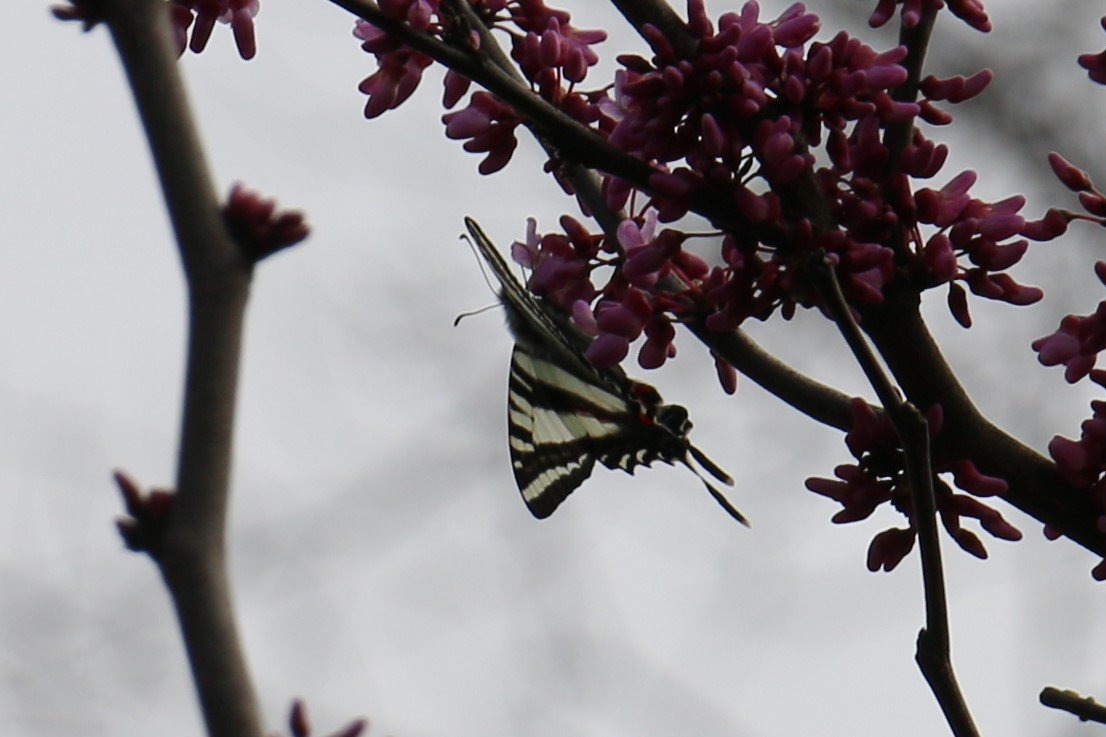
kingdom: Animalia
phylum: Arthropoda
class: Insecta
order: Lepidoptera
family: Papilionidae
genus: Protographium
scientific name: Protographium marcellus
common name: Zebra Swallowtail
